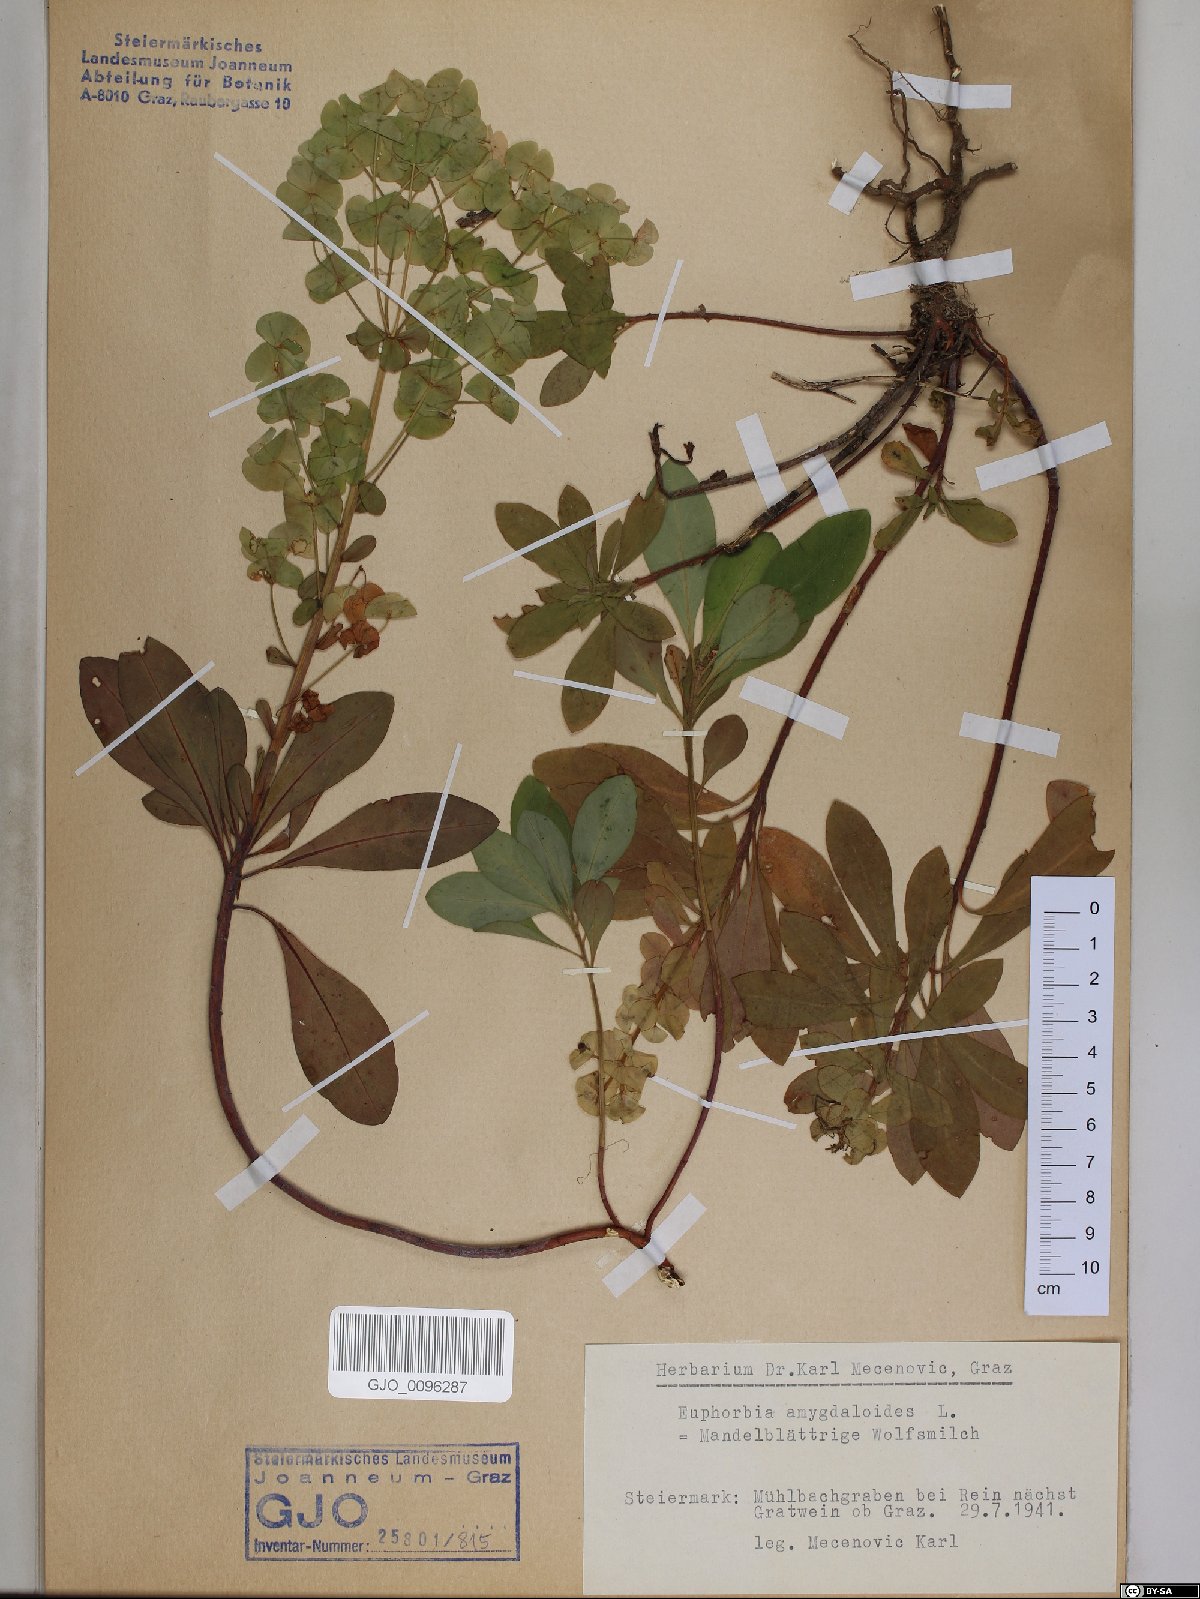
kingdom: Plantae
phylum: Tracheophyta
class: Magnoliopsida
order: Malpighiales
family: Euphorbiaceae
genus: Euphorbia
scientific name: Euphorbia amygdaloides
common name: Wood spurge
